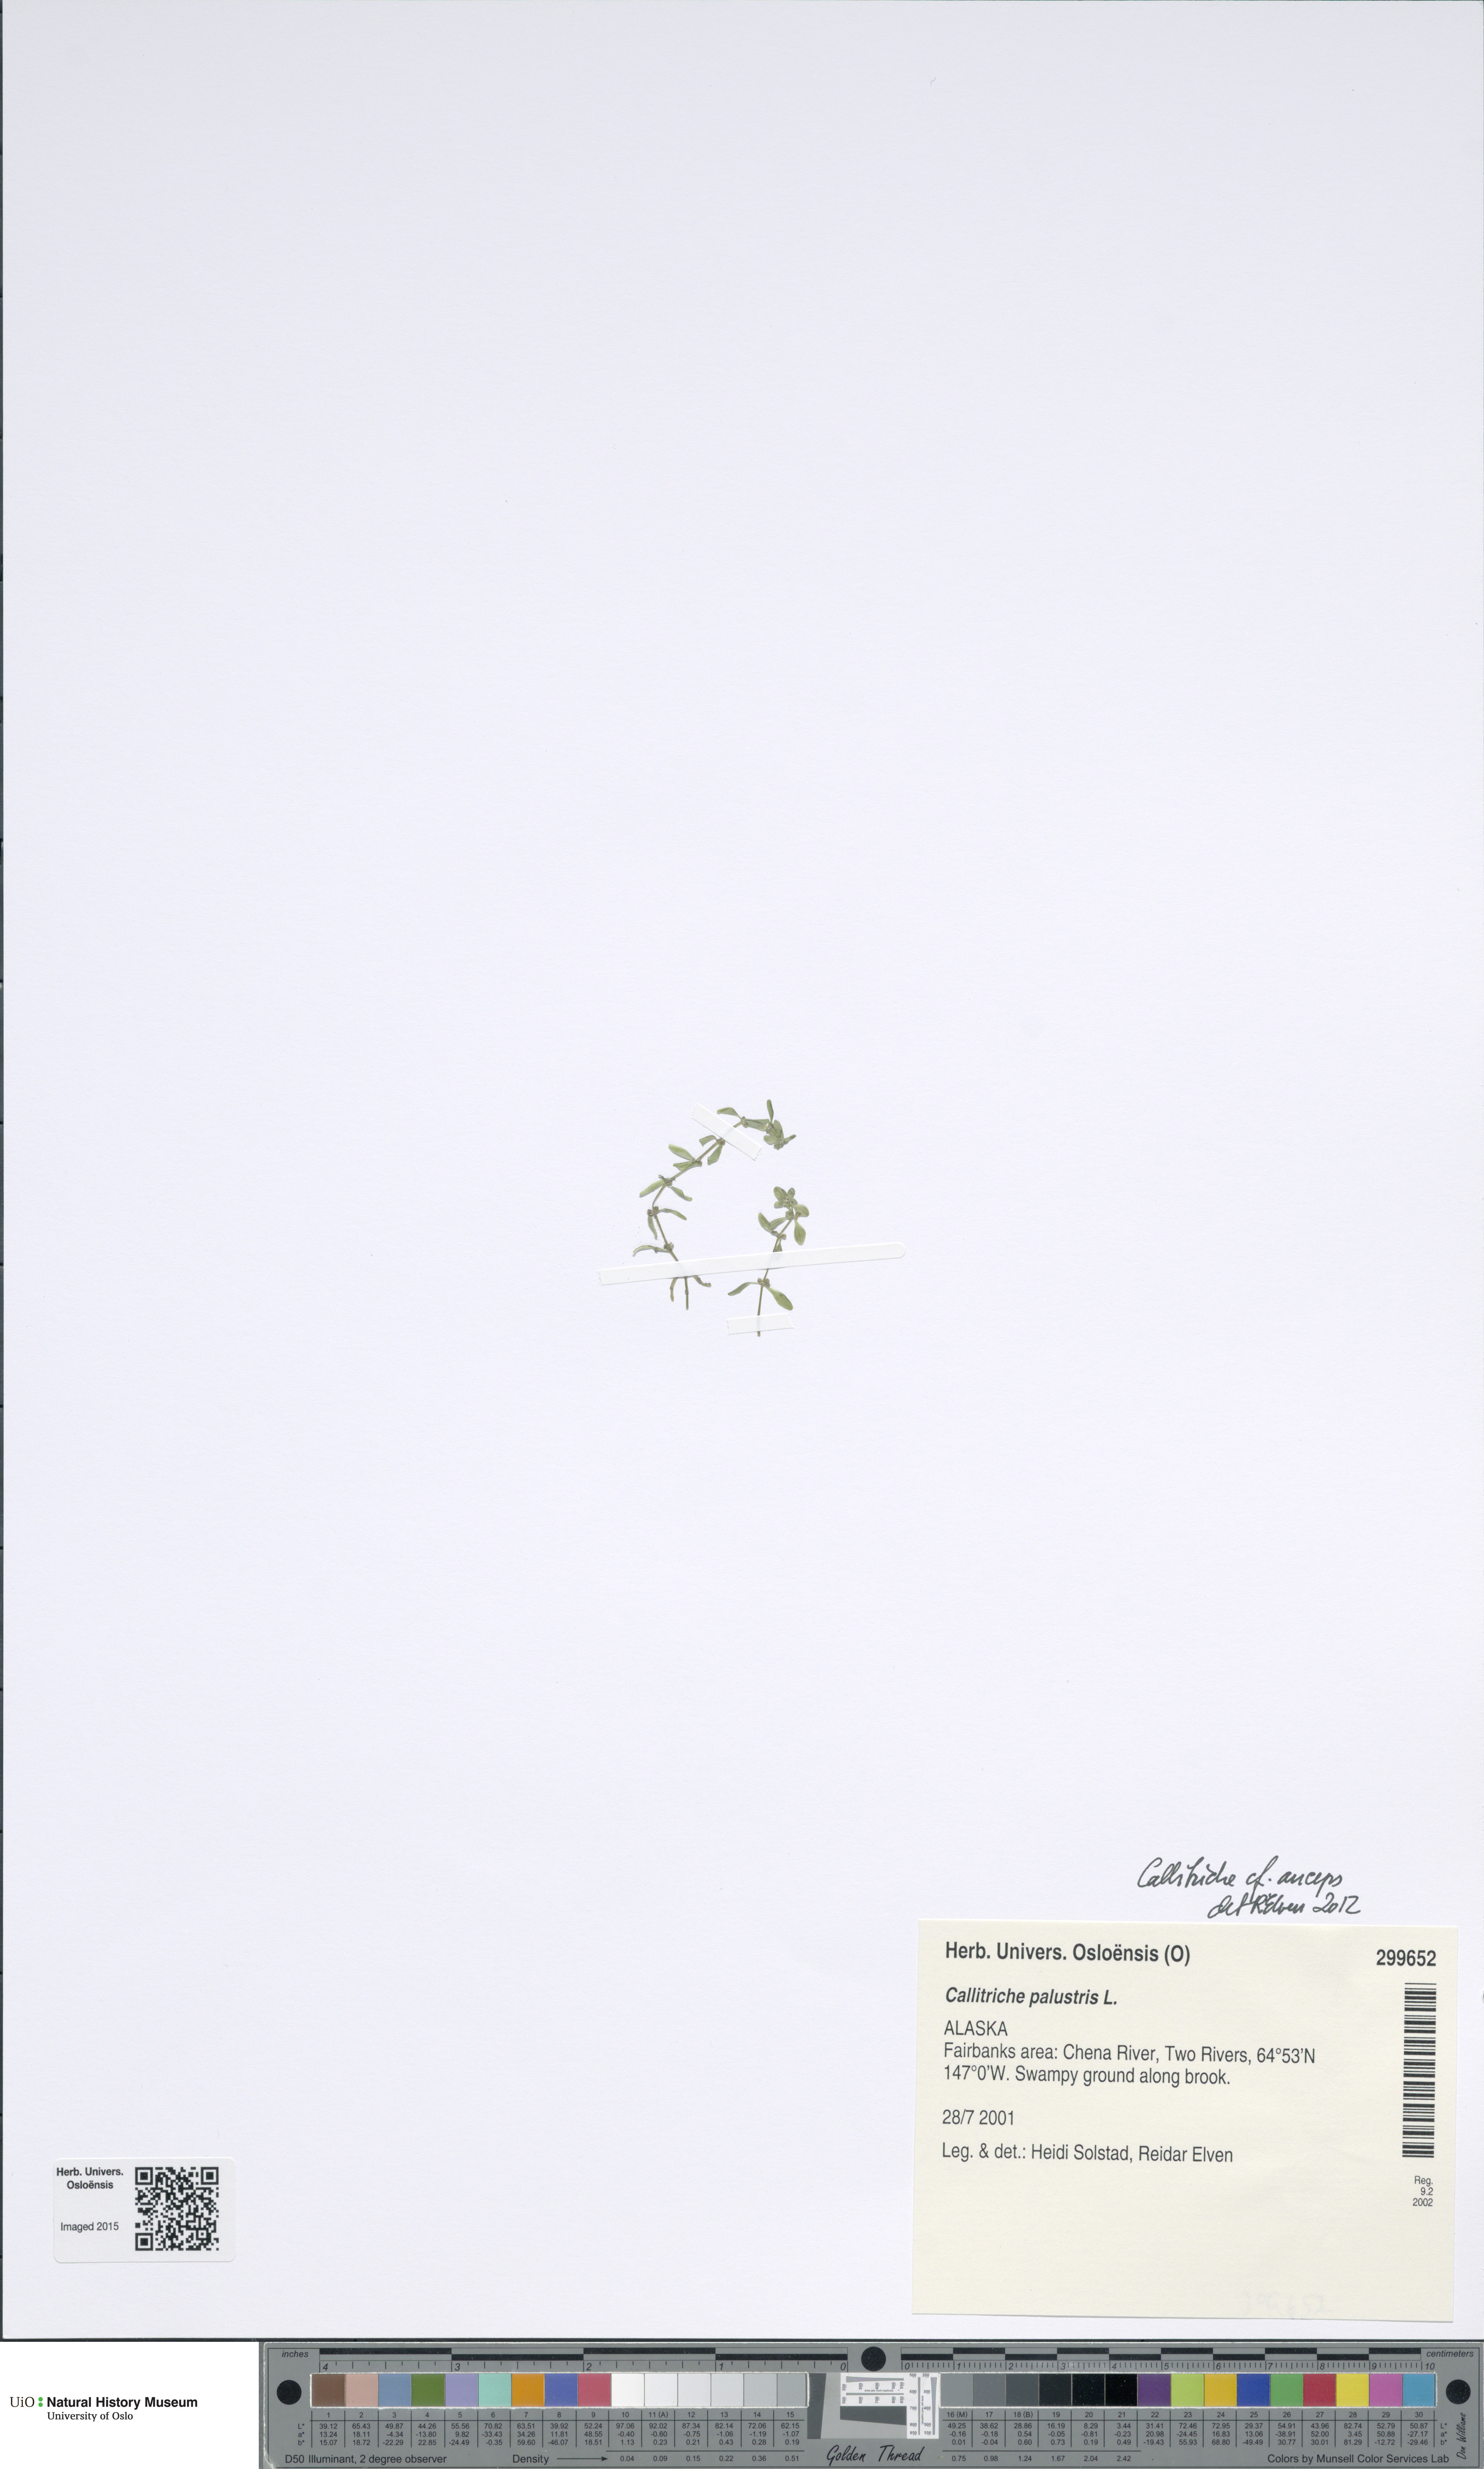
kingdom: Plantae
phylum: Tracheophyta
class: Magnoliopsida
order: Lamiales
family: Plantaginaceae
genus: Callitriche
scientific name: Callitriche palustris
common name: Spring water-starwort
